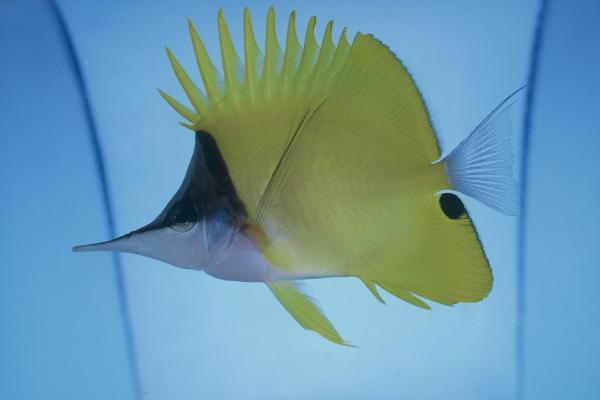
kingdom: Animalia
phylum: Chordata
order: Perciformes
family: Chaetodontidae
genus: Forcipiger
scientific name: Forcipiger flavissimus
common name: Forcepsfish
